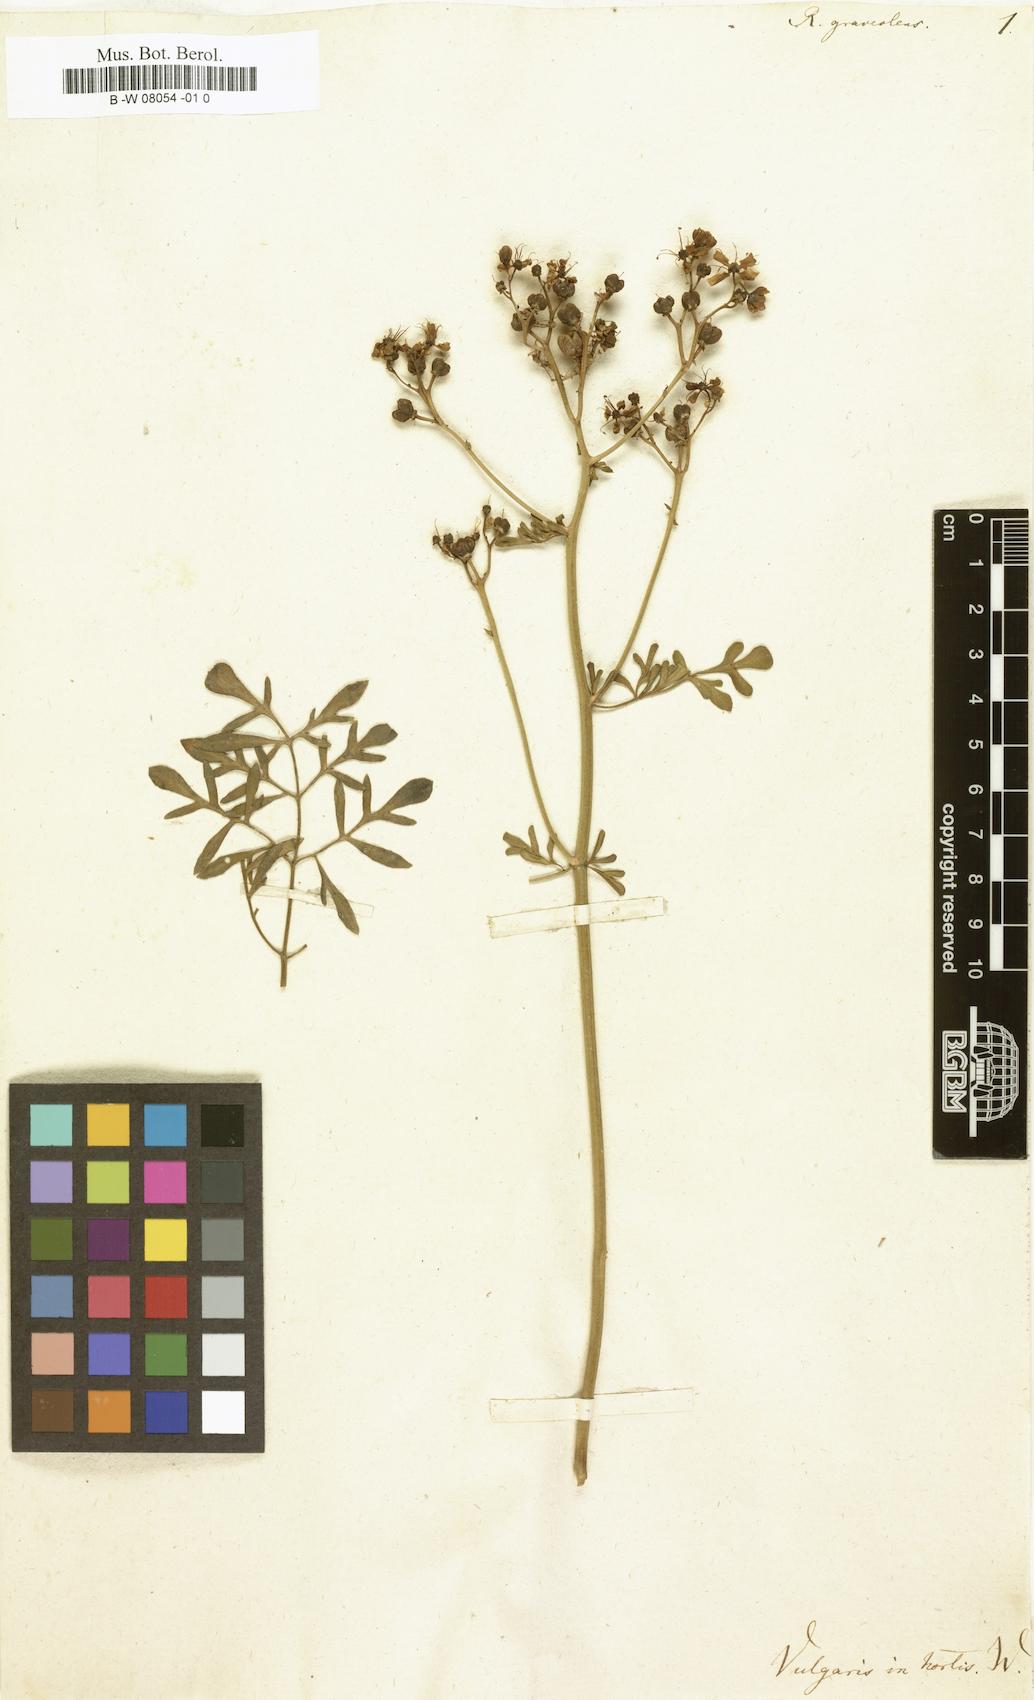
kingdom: Plantae
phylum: Tracheophyta
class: Magnoliopsida
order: Sapindales
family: Rutaceae
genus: Ruta
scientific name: Ruta graveolens
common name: Common rue
